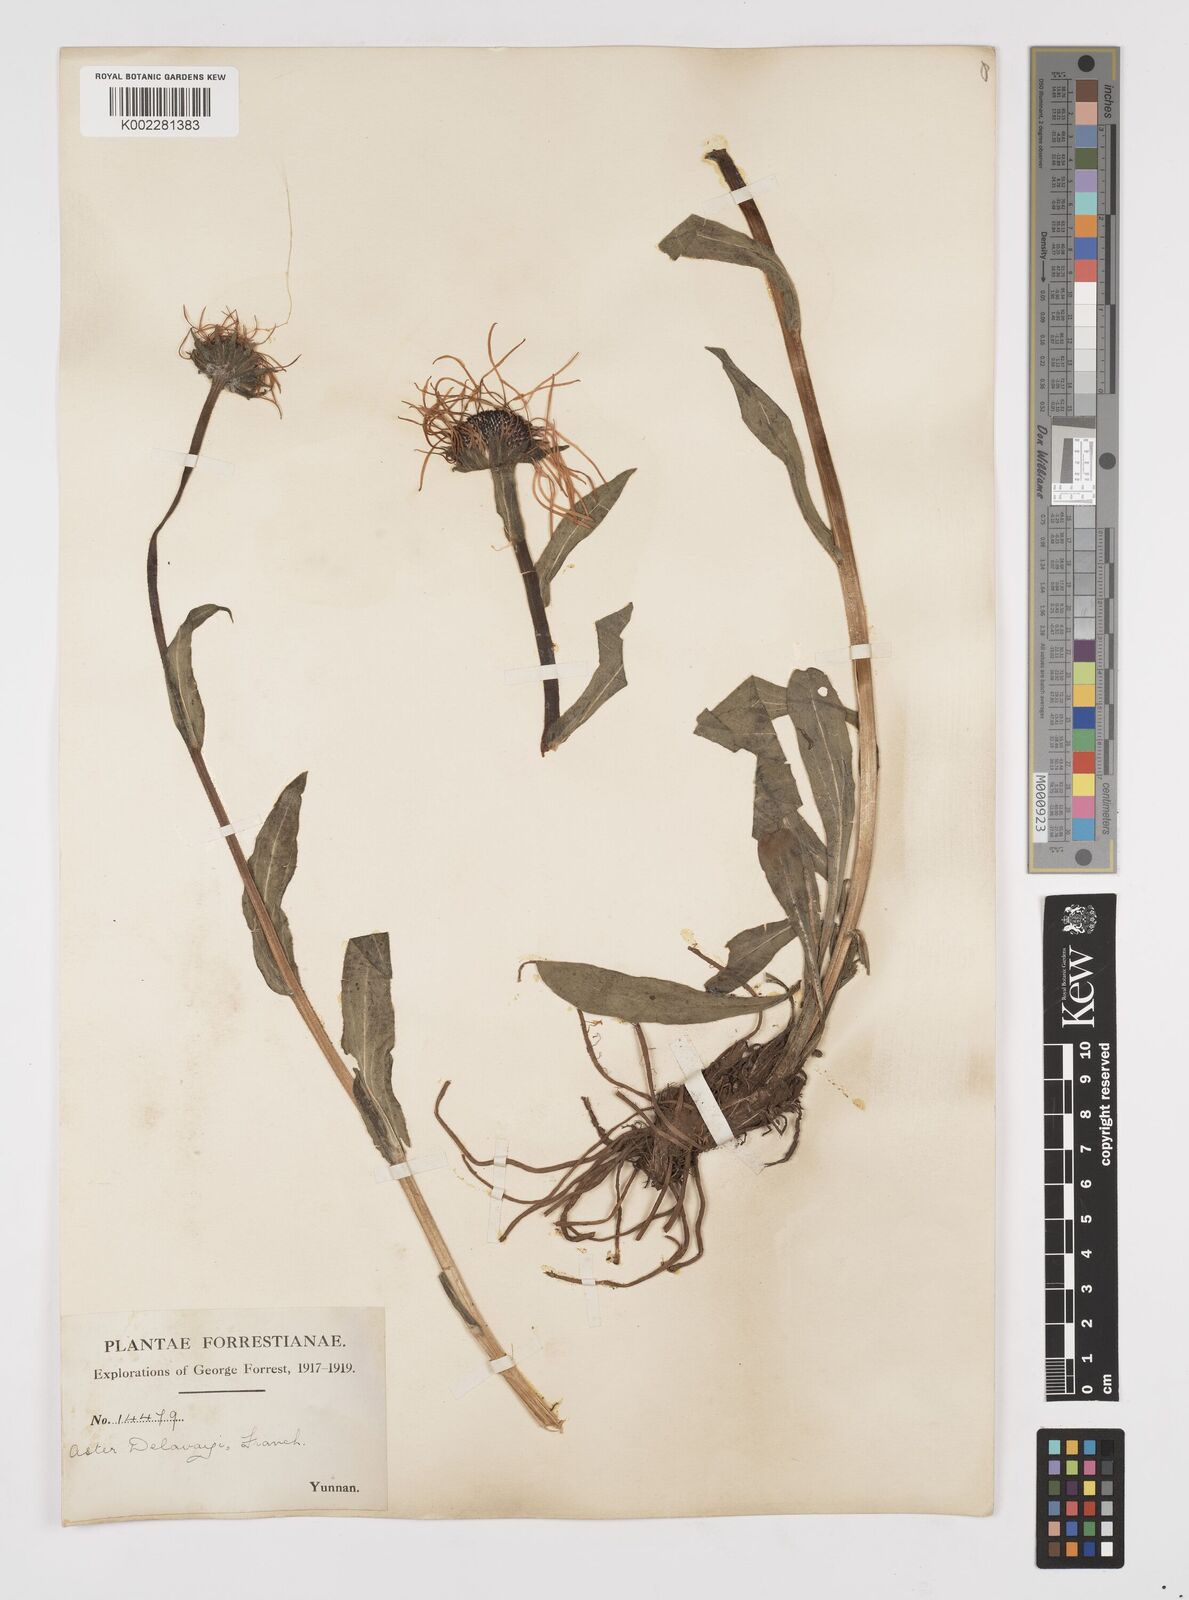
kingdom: Plantae
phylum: Tracheophyta
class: Magnoliopsida
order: Asterales
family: Asteraceae
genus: Tibetiodes
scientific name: Tibetiodes diplostephioides
